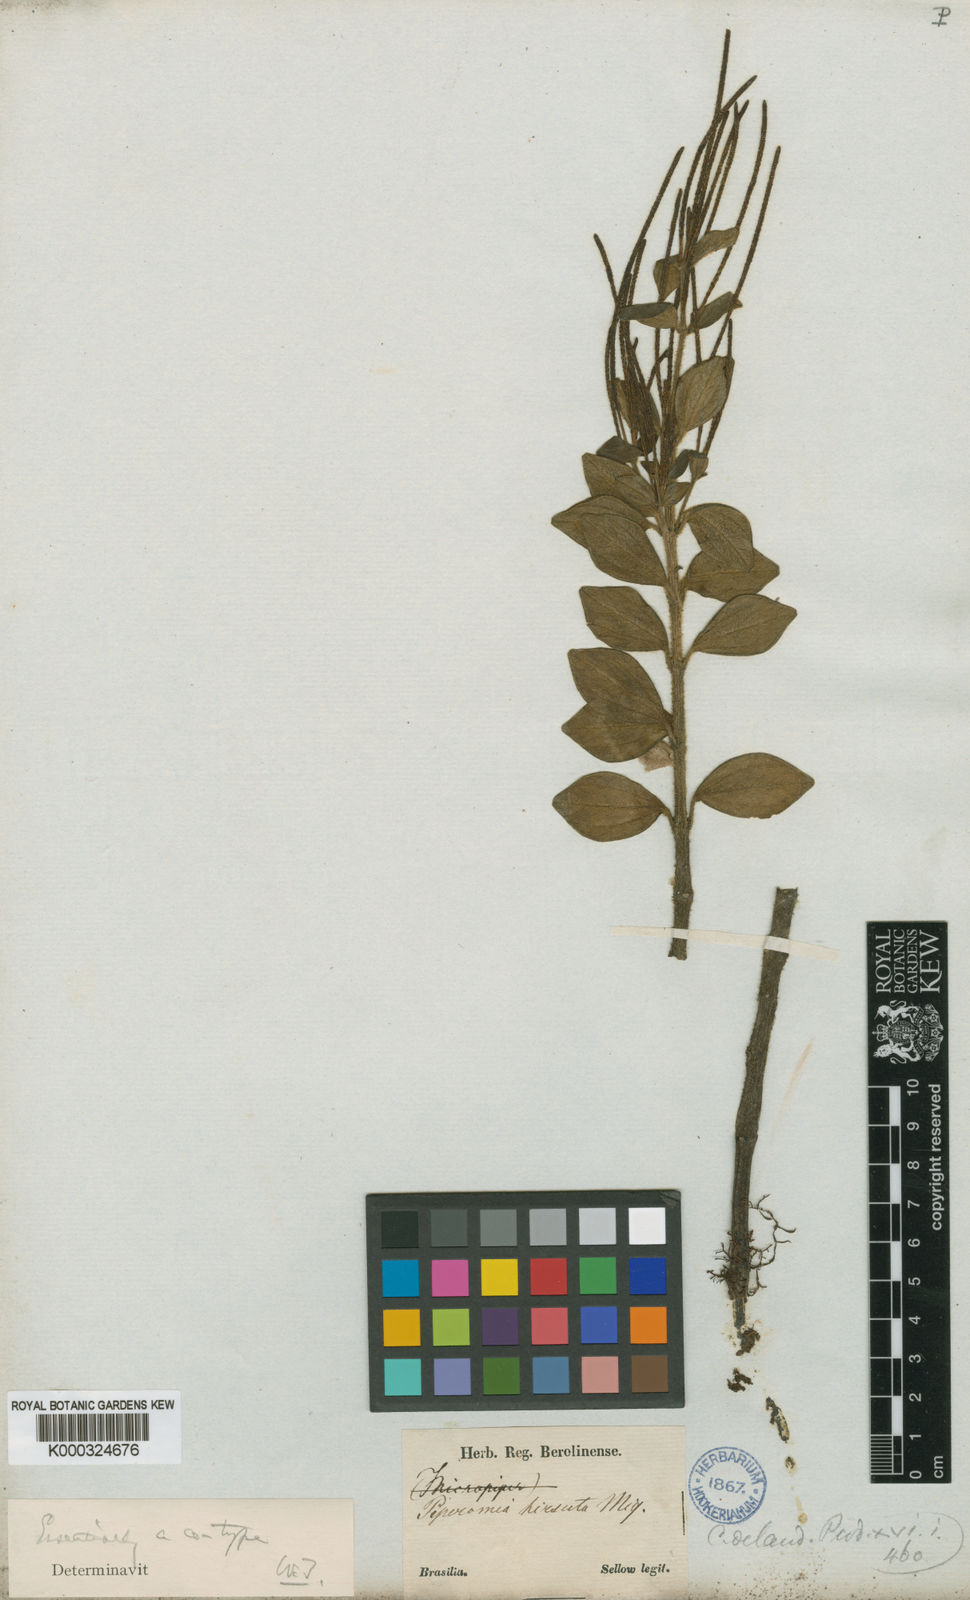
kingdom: Plantae
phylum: Tracheophyta
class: Magnoliopsida
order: Piperales
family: Piperaceae
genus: Peperomia
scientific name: Peperomia blanda
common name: Arid-land peperomia
